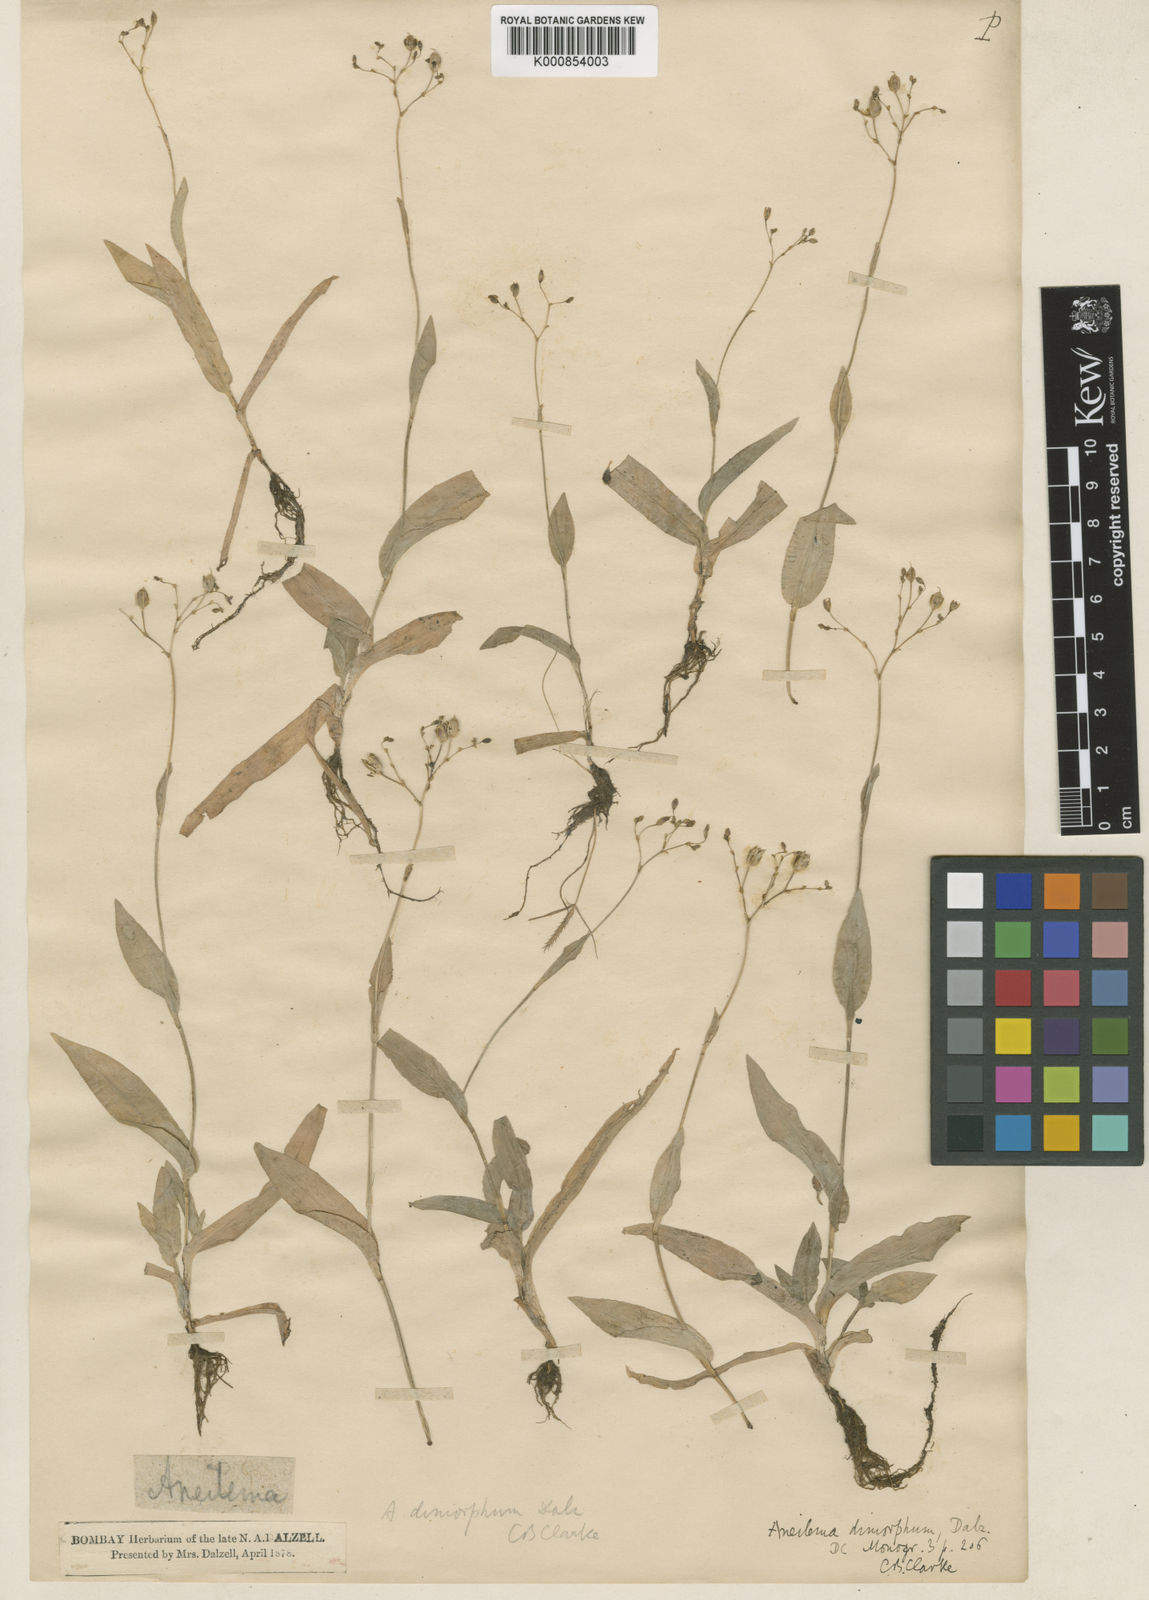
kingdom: Plantae
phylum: Tracheophyta
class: Liliopsida
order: Commelinales
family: Commelinaceae
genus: Murdannia
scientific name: Murdannia
